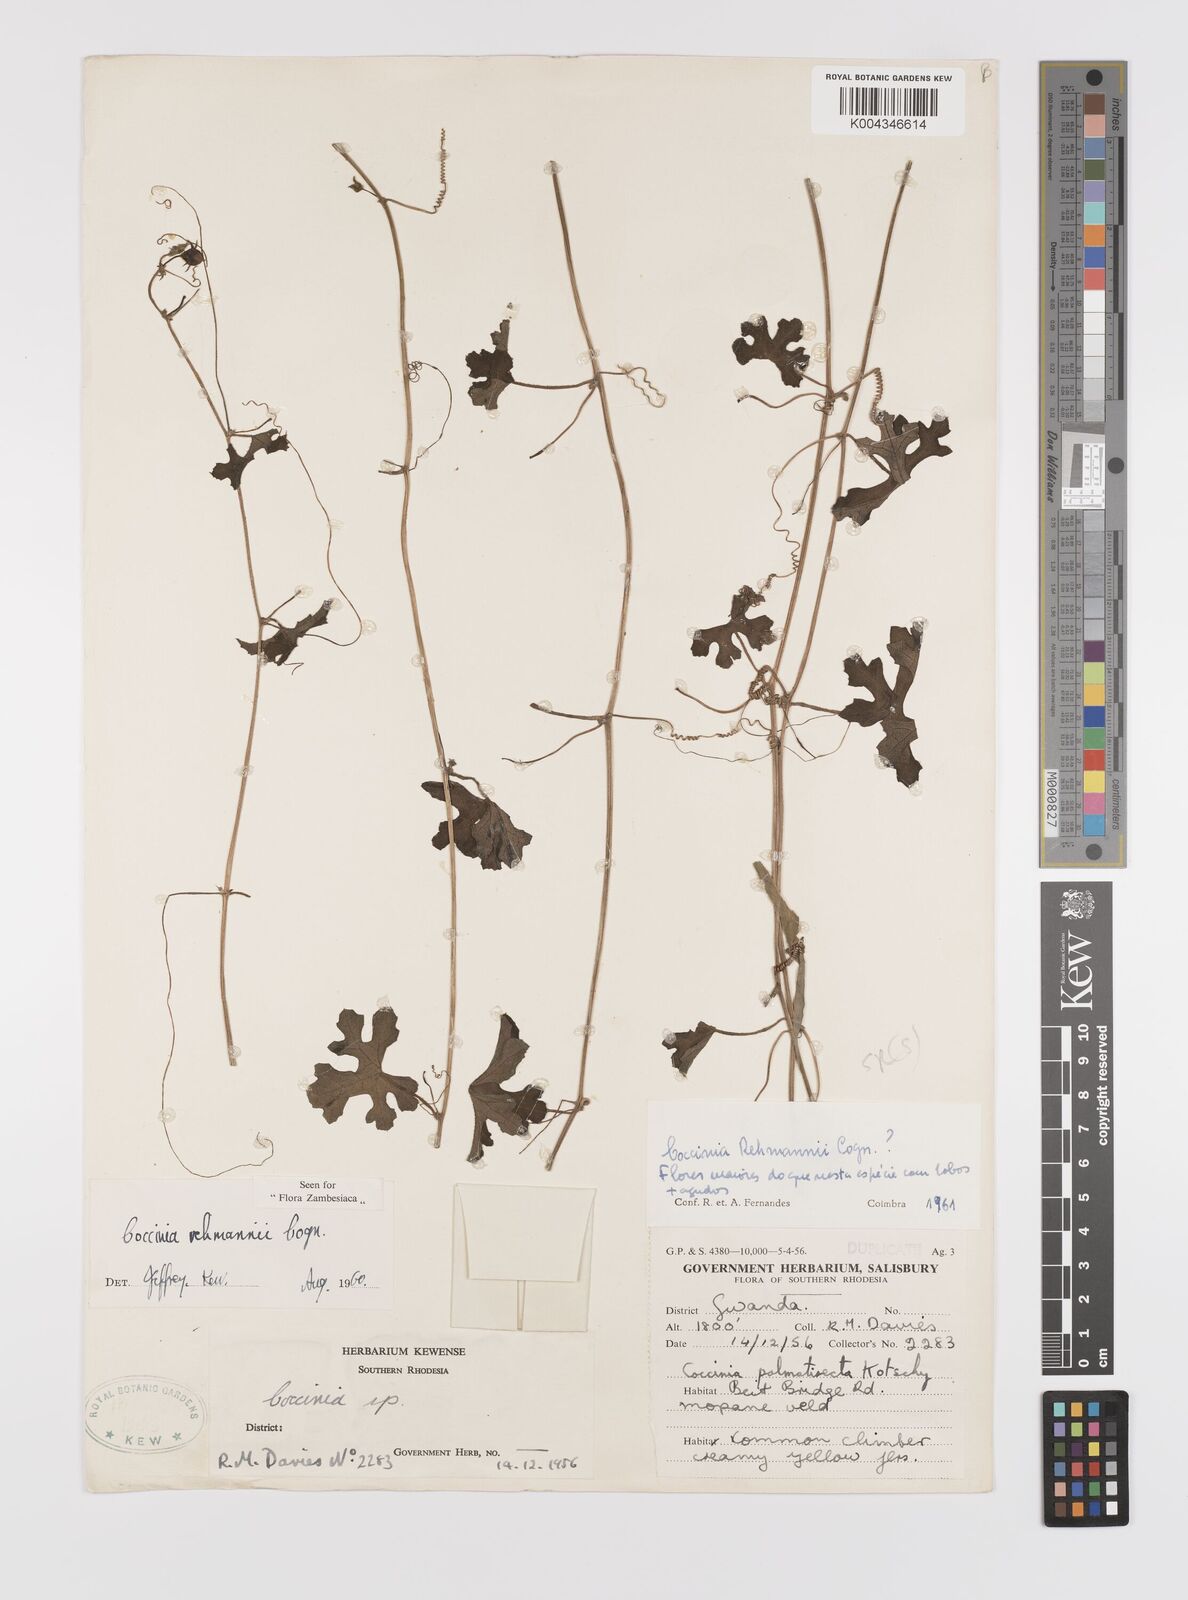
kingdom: Plantae
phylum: Tracheophyta
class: Magnoliopsida
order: Cucurbitales
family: Cucurbitaceae
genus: Coccinia
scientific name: Coccinia rehmannii
